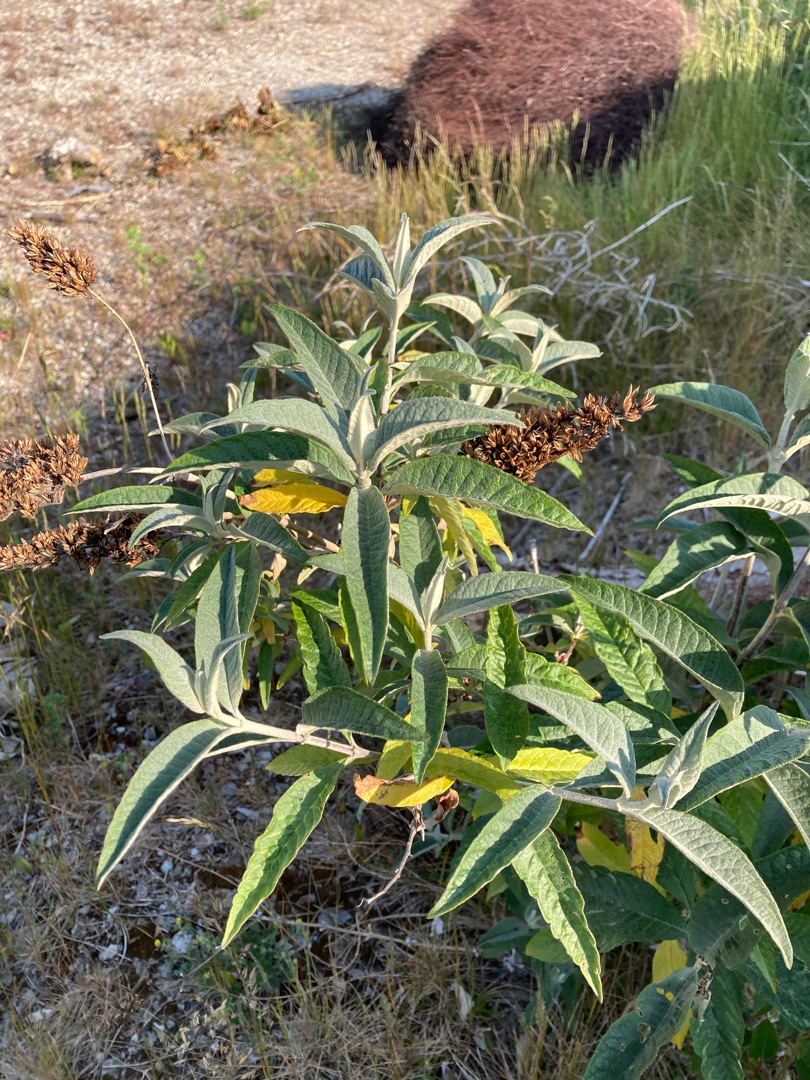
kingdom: Plantae
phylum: Tracheophyta
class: Magnoliopsida
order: Lamiales
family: Scrophulariaceae
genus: Buddleja
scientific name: Buddleja davidii
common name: Sommerfuglebusk
